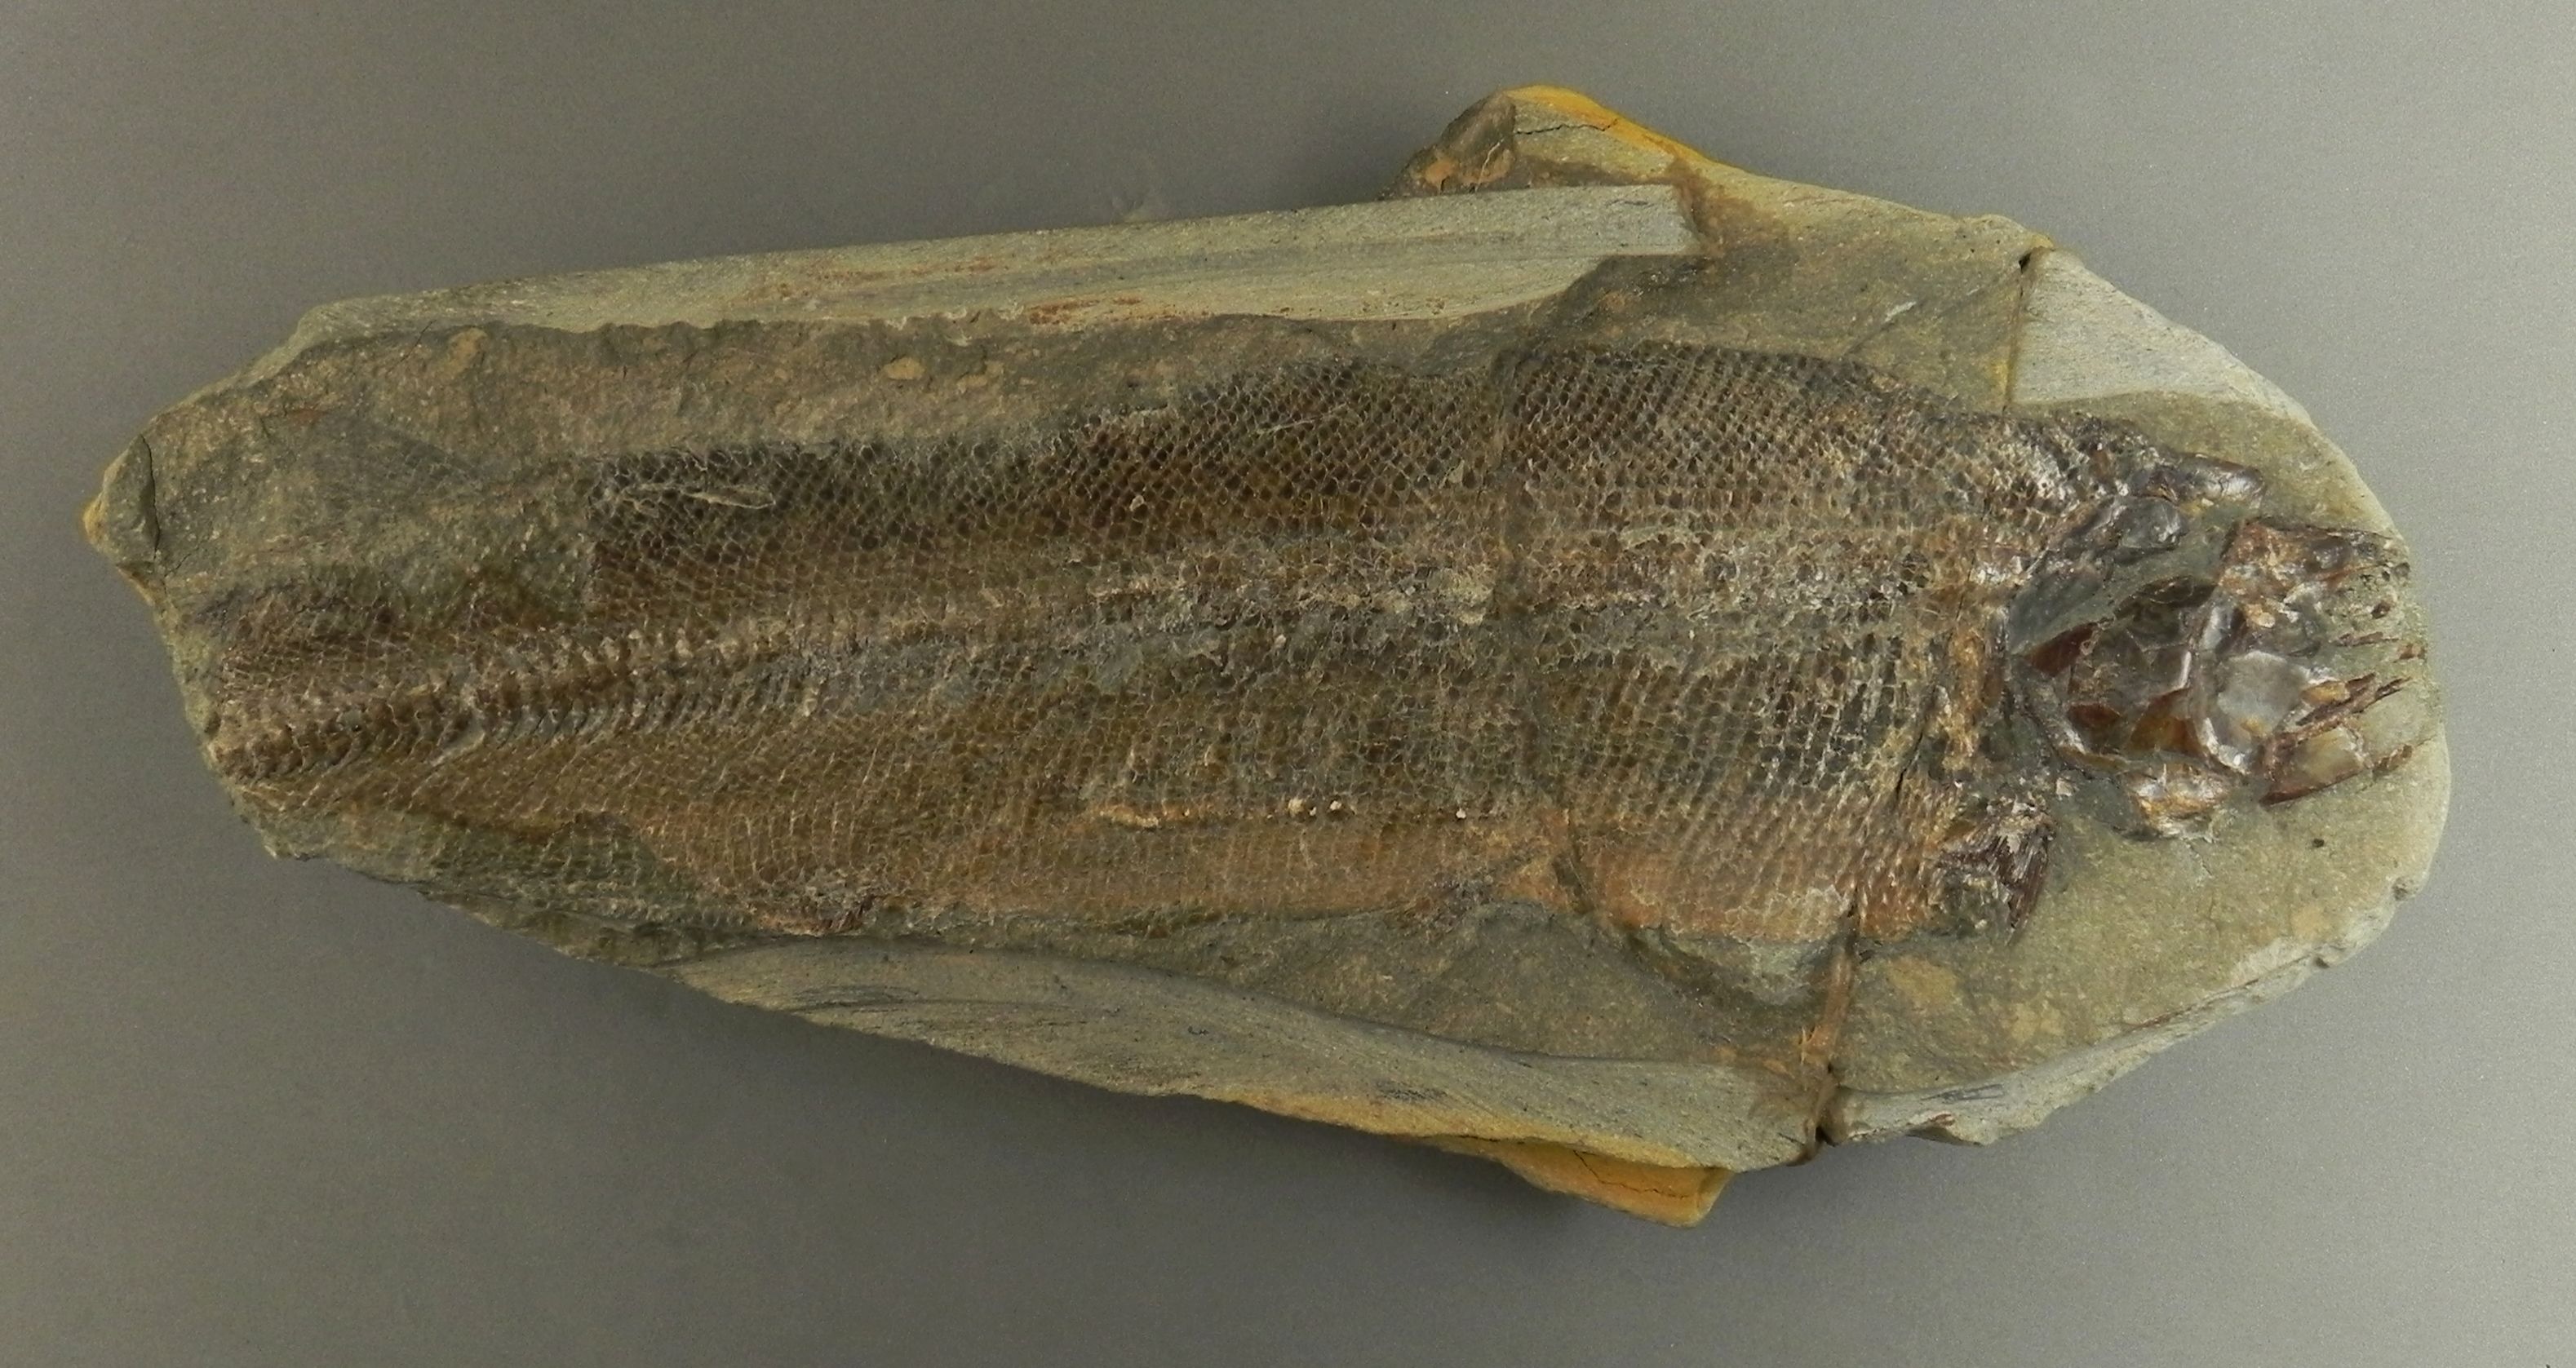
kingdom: Animalia
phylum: Chordata
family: Pachycormidae
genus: Euthynotus
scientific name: Euthynotus incognitus
